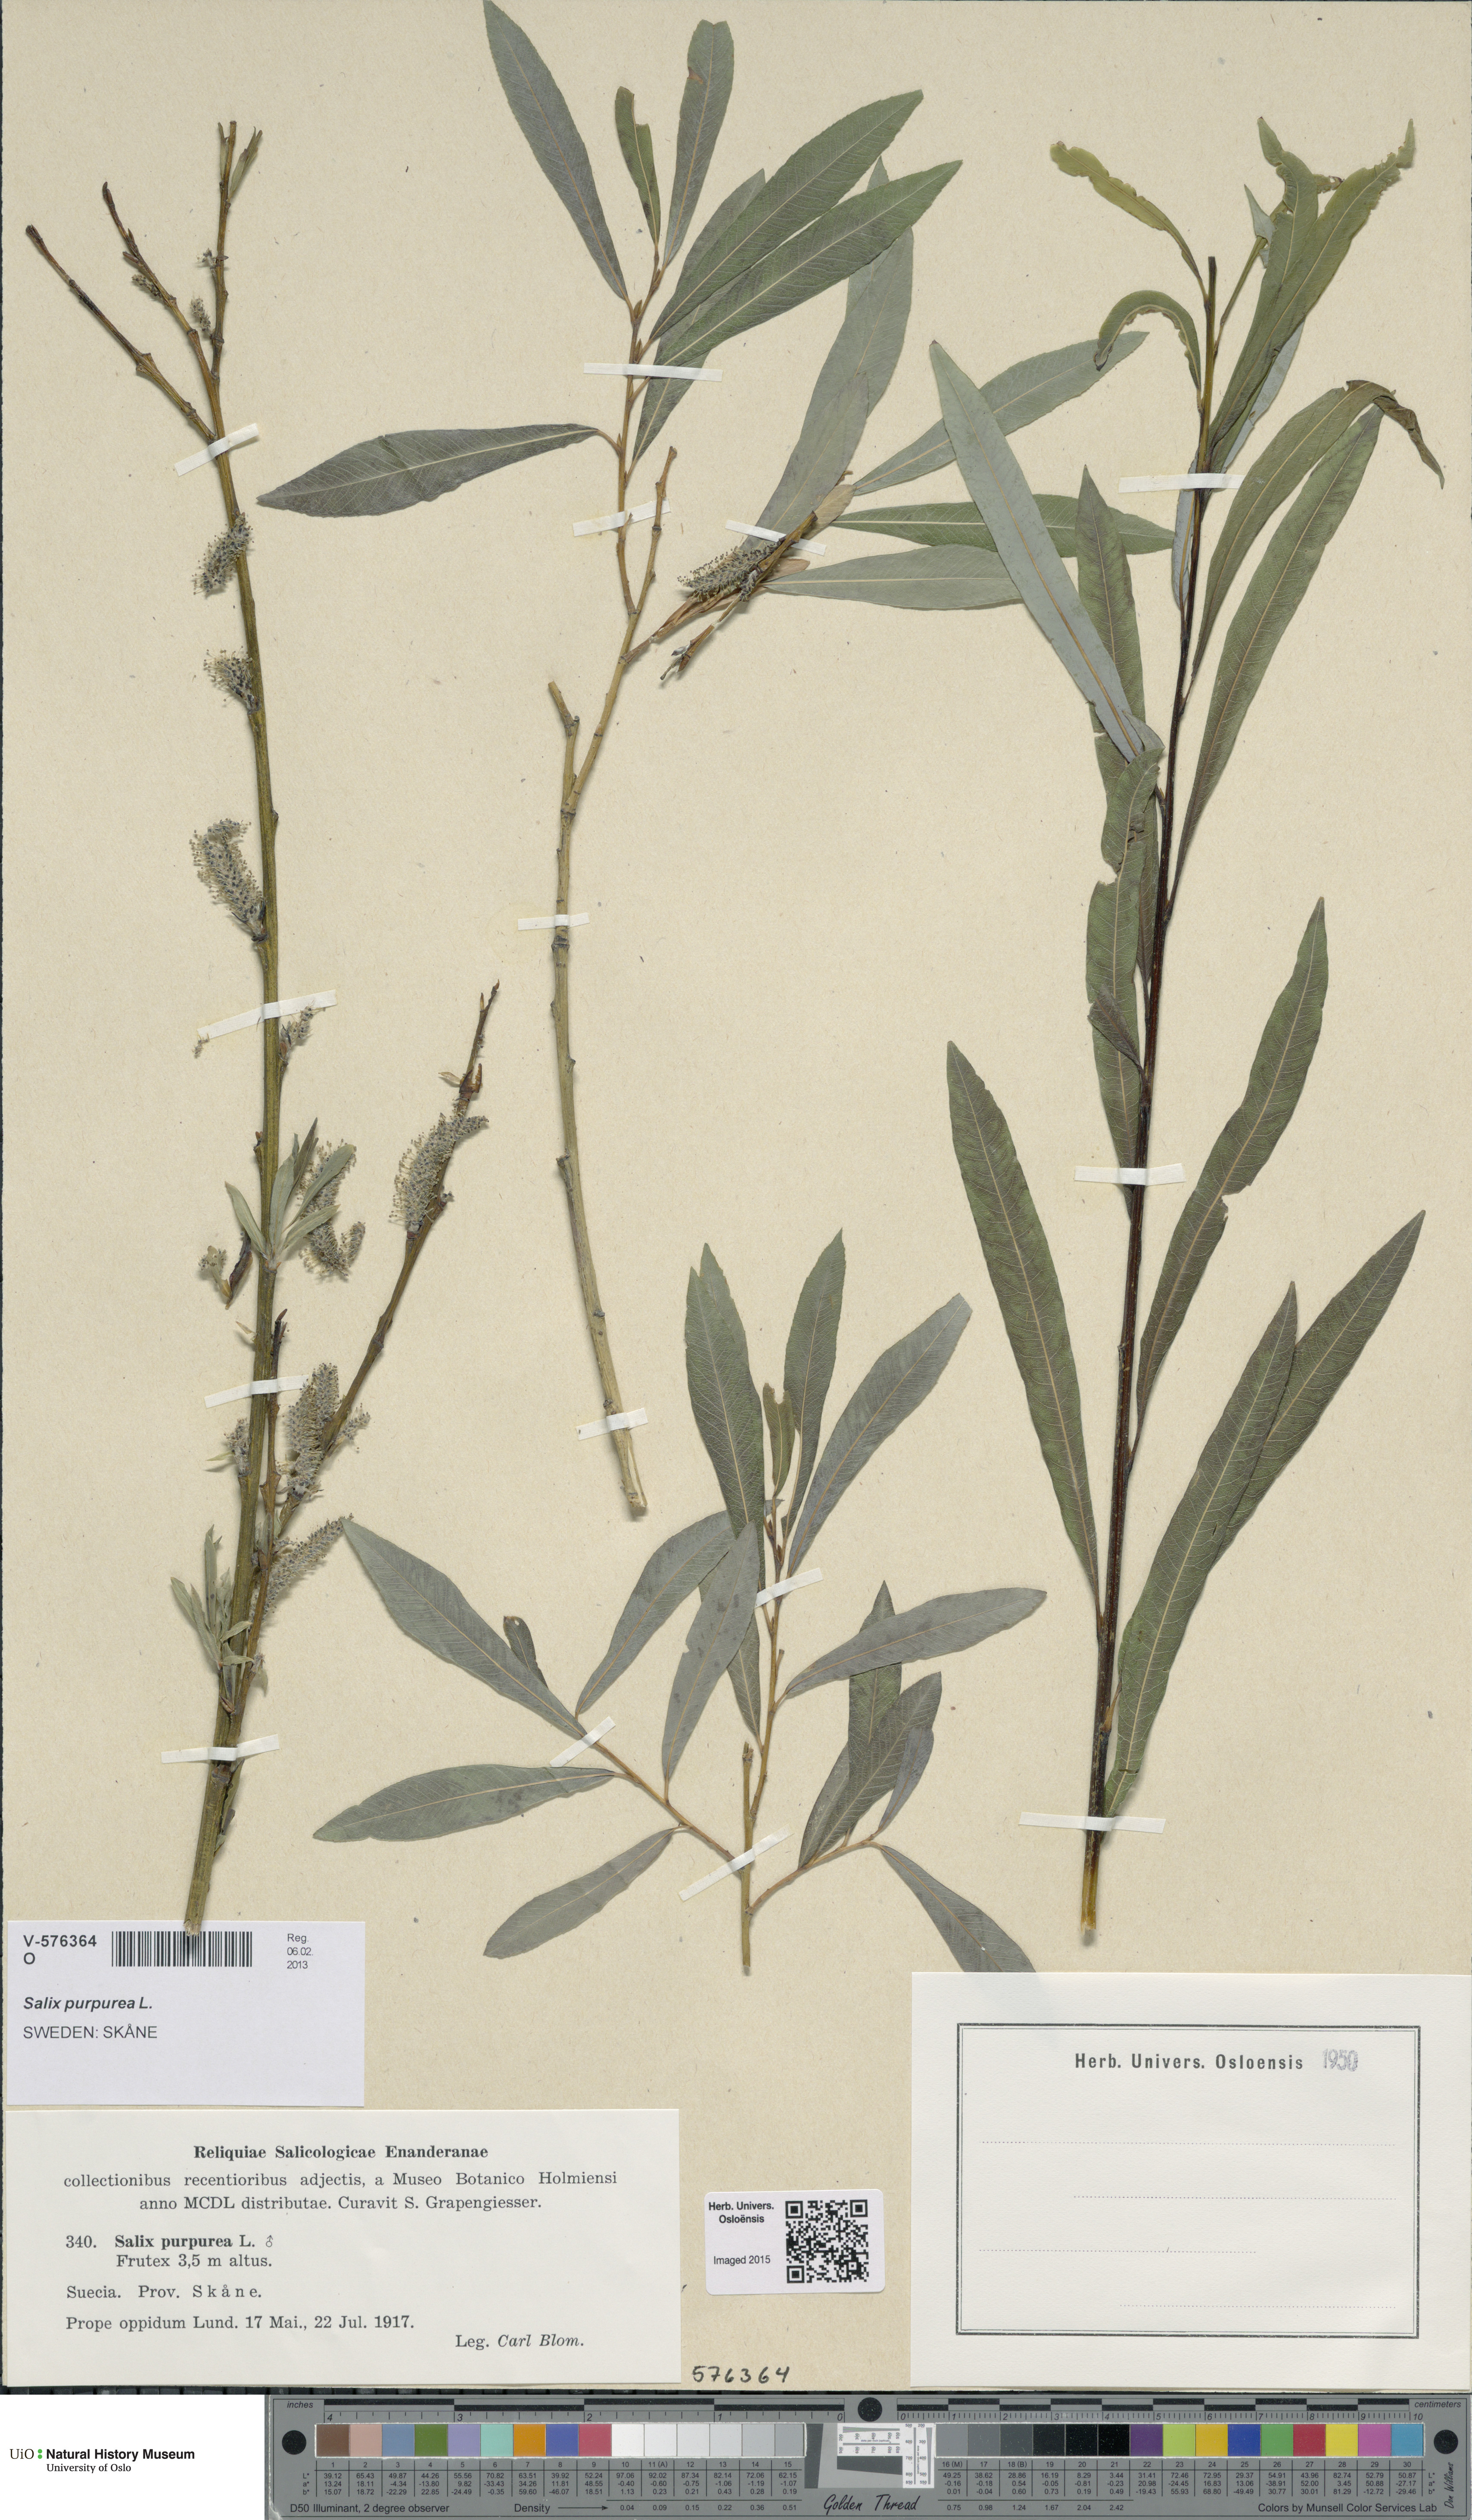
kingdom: Plantae
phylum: Tracheophyta
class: Magnoliopsida
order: Malpighiales
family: Salicaceae
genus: Salix
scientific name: Salix purpurea
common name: Purple willow
